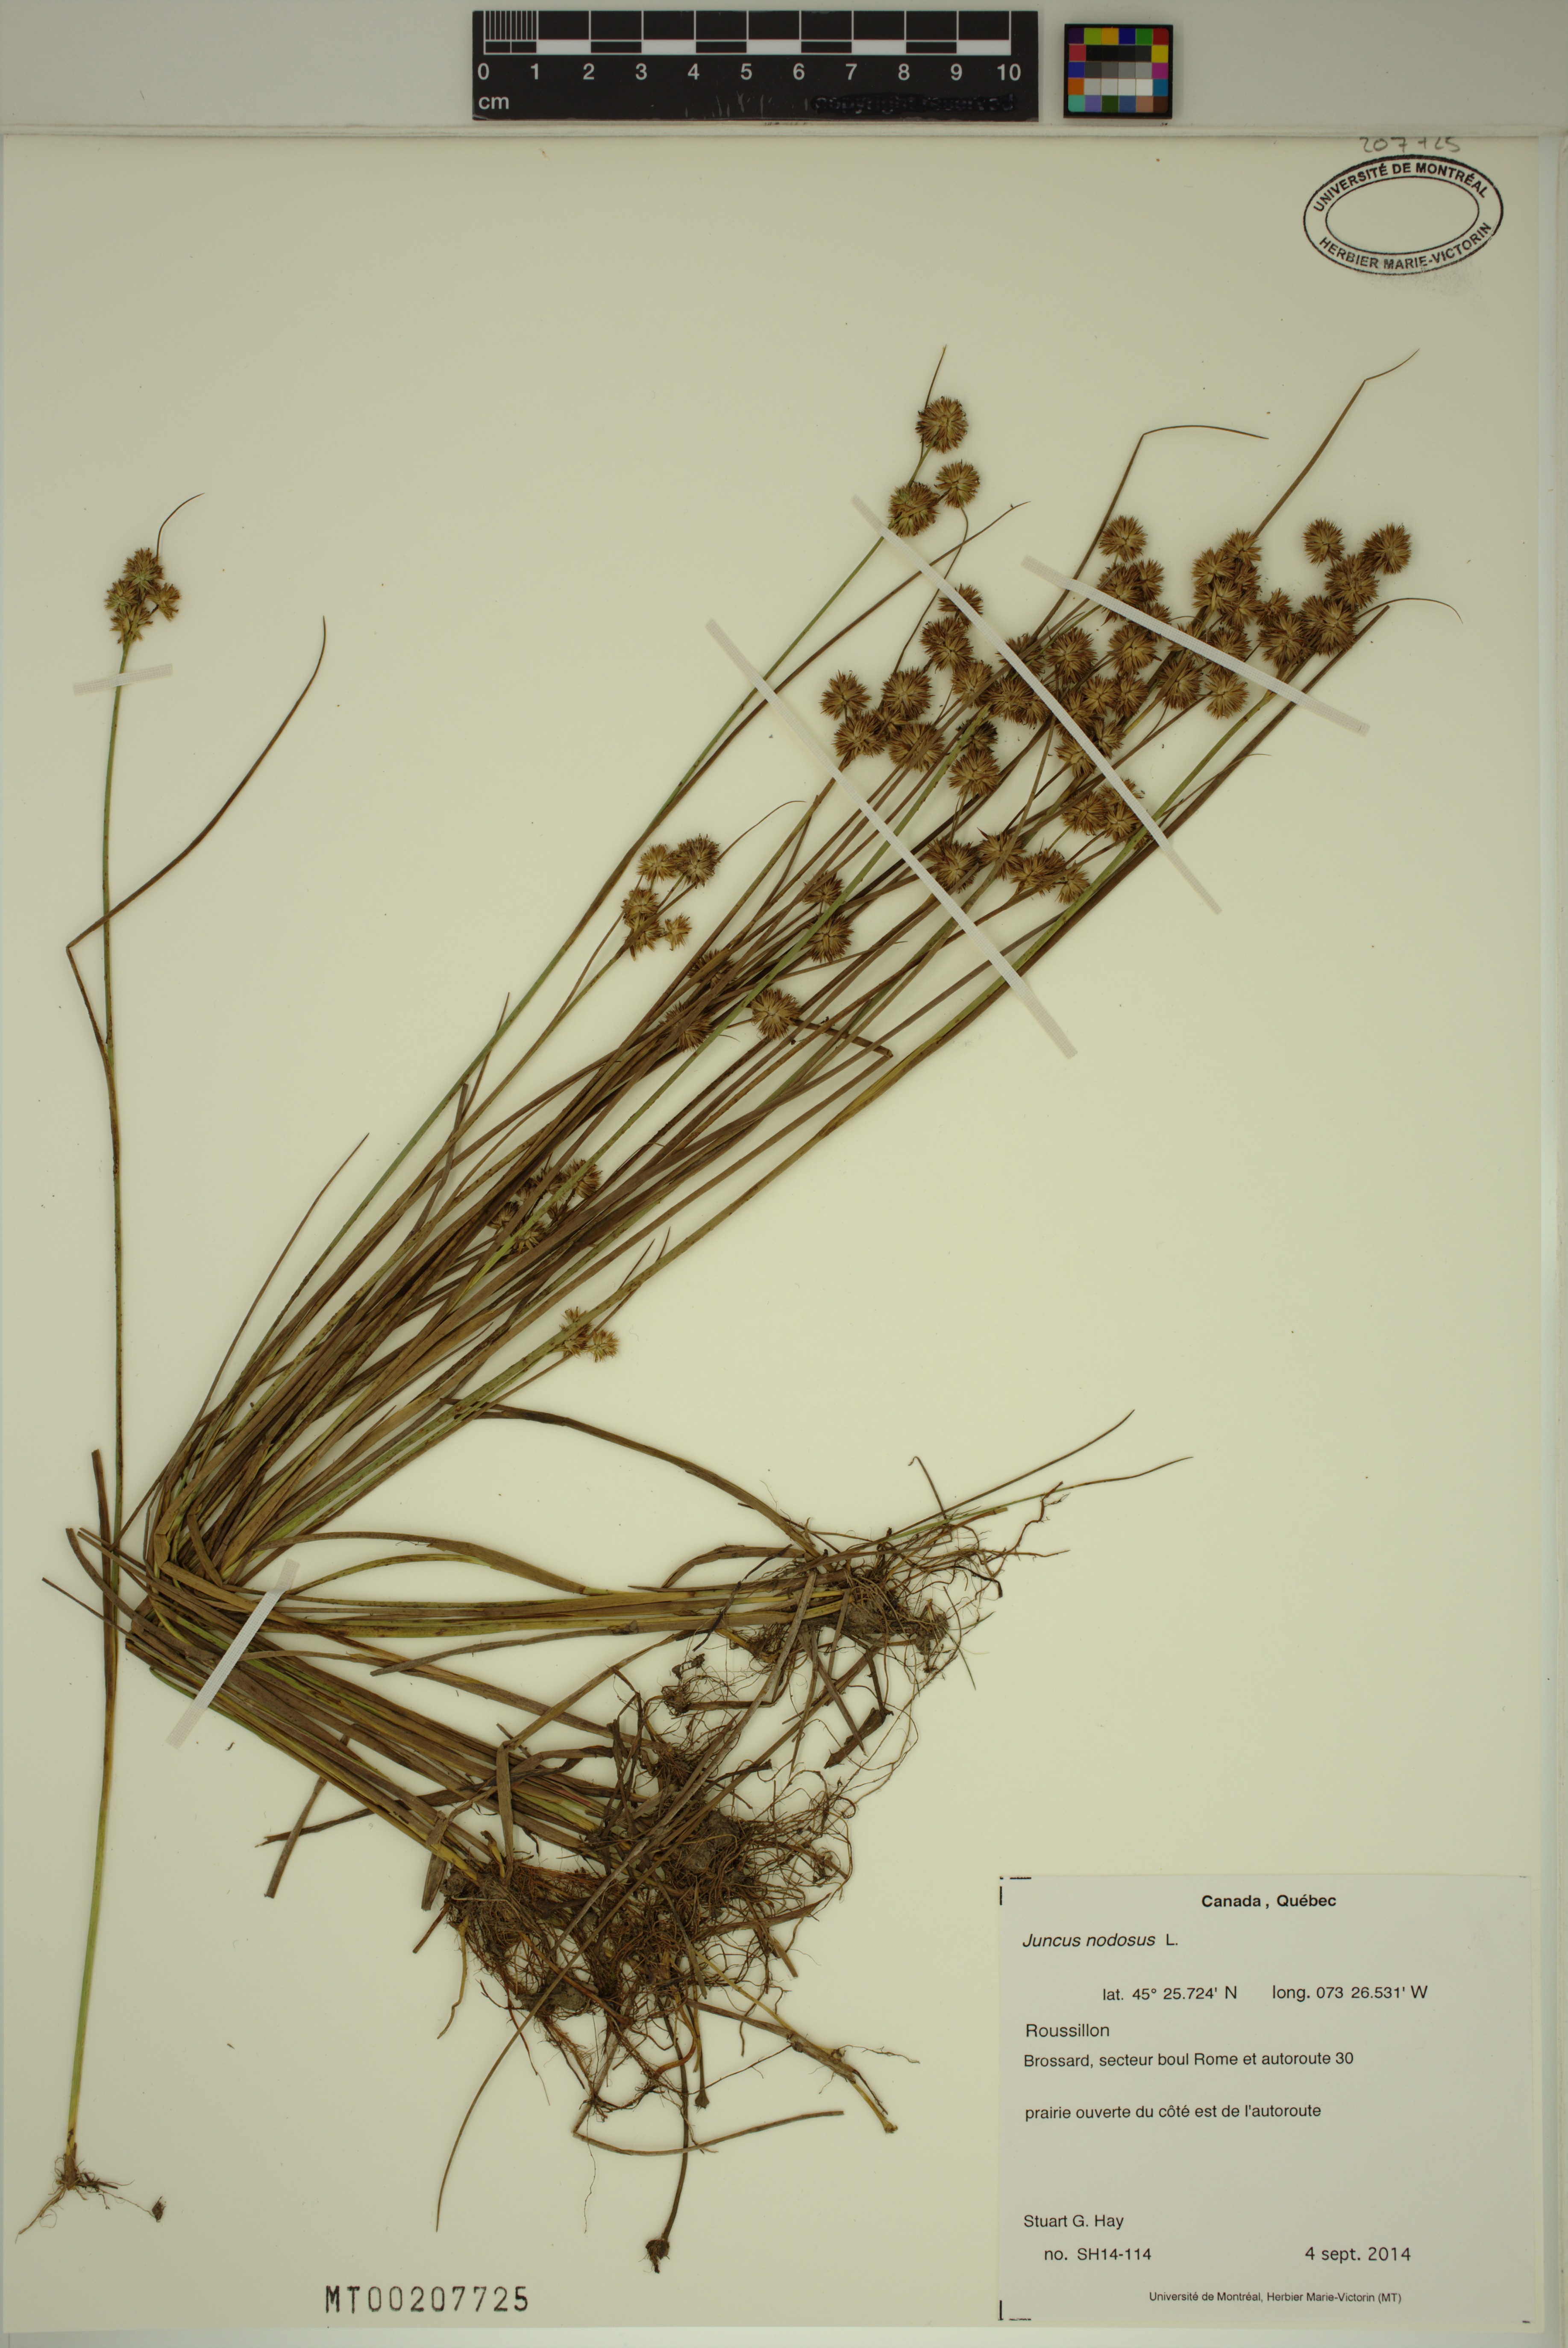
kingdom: Plantae
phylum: Tracheophyta
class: Liliopsida
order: Poales
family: Juncaceae
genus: Juncus
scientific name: Juncus nodosus
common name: Knotted rush
